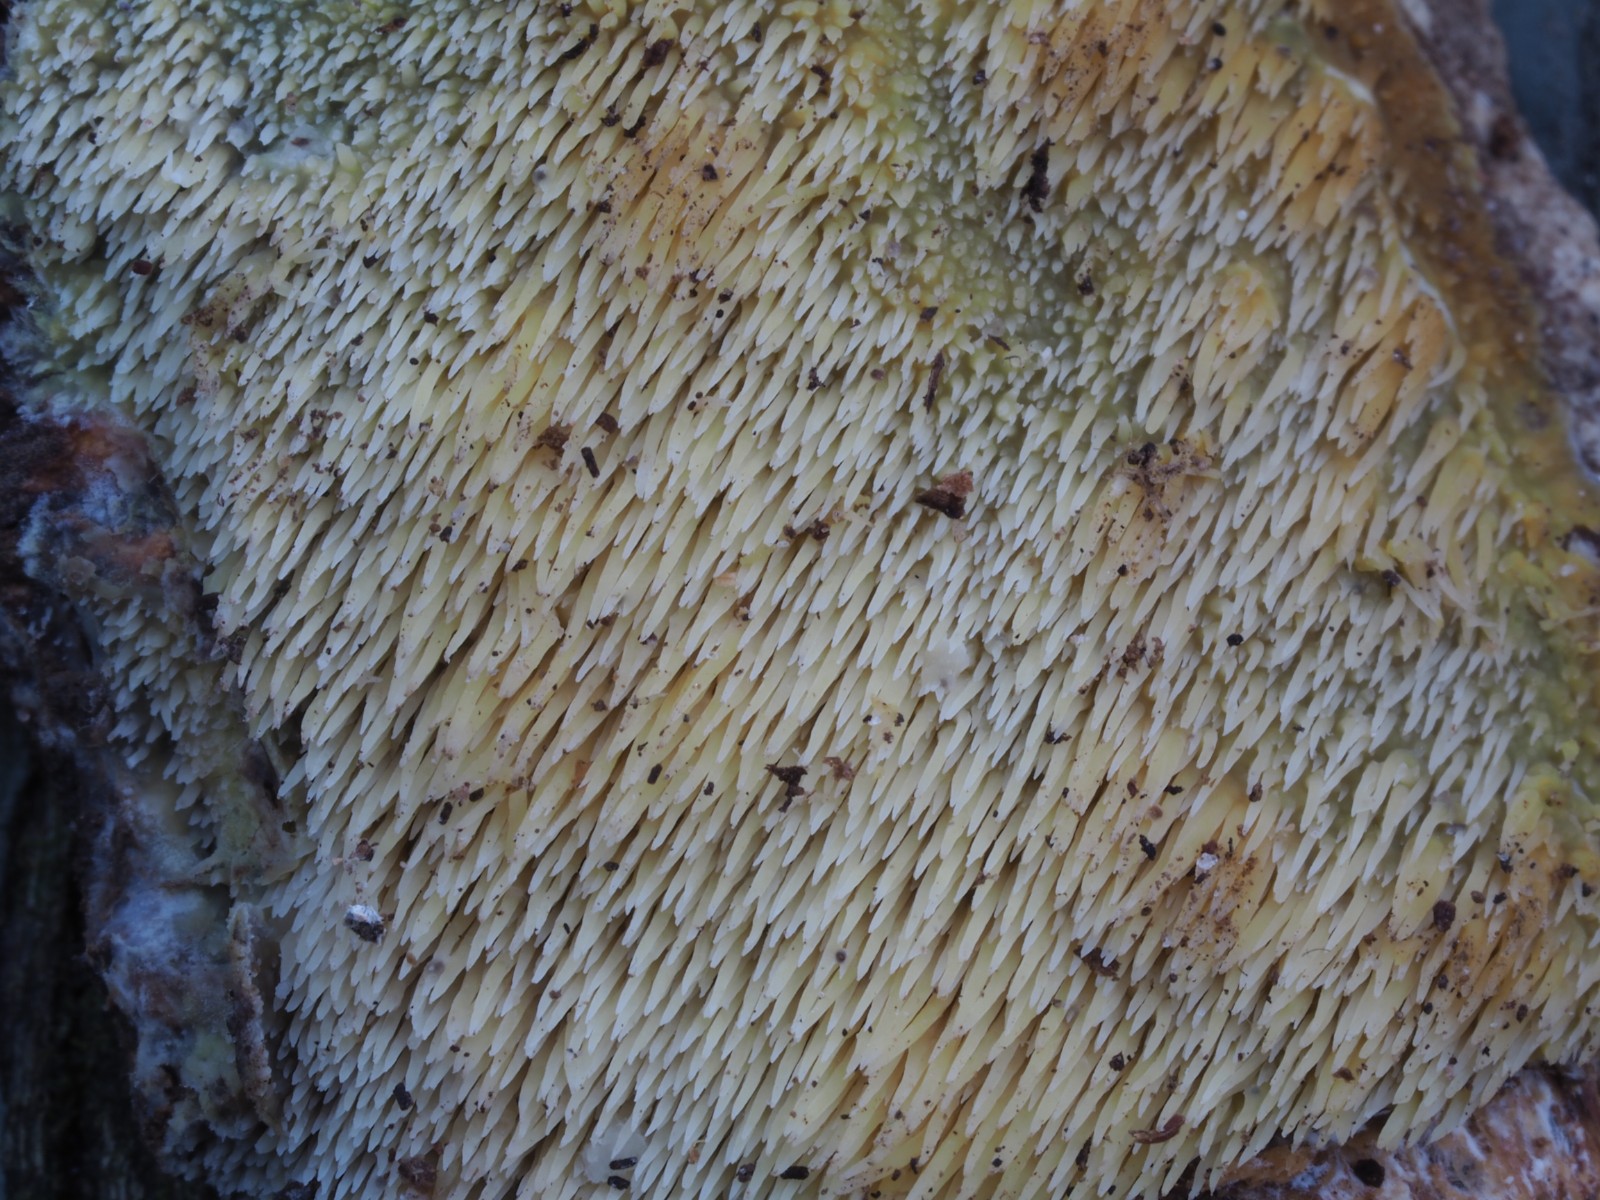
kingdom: Fungi
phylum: Basidiomycota
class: Agaricomycetes
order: Polyporales
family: Meruliaceae
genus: Mycoacia
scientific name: Mycoacia uda
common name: citrongul vokspig
